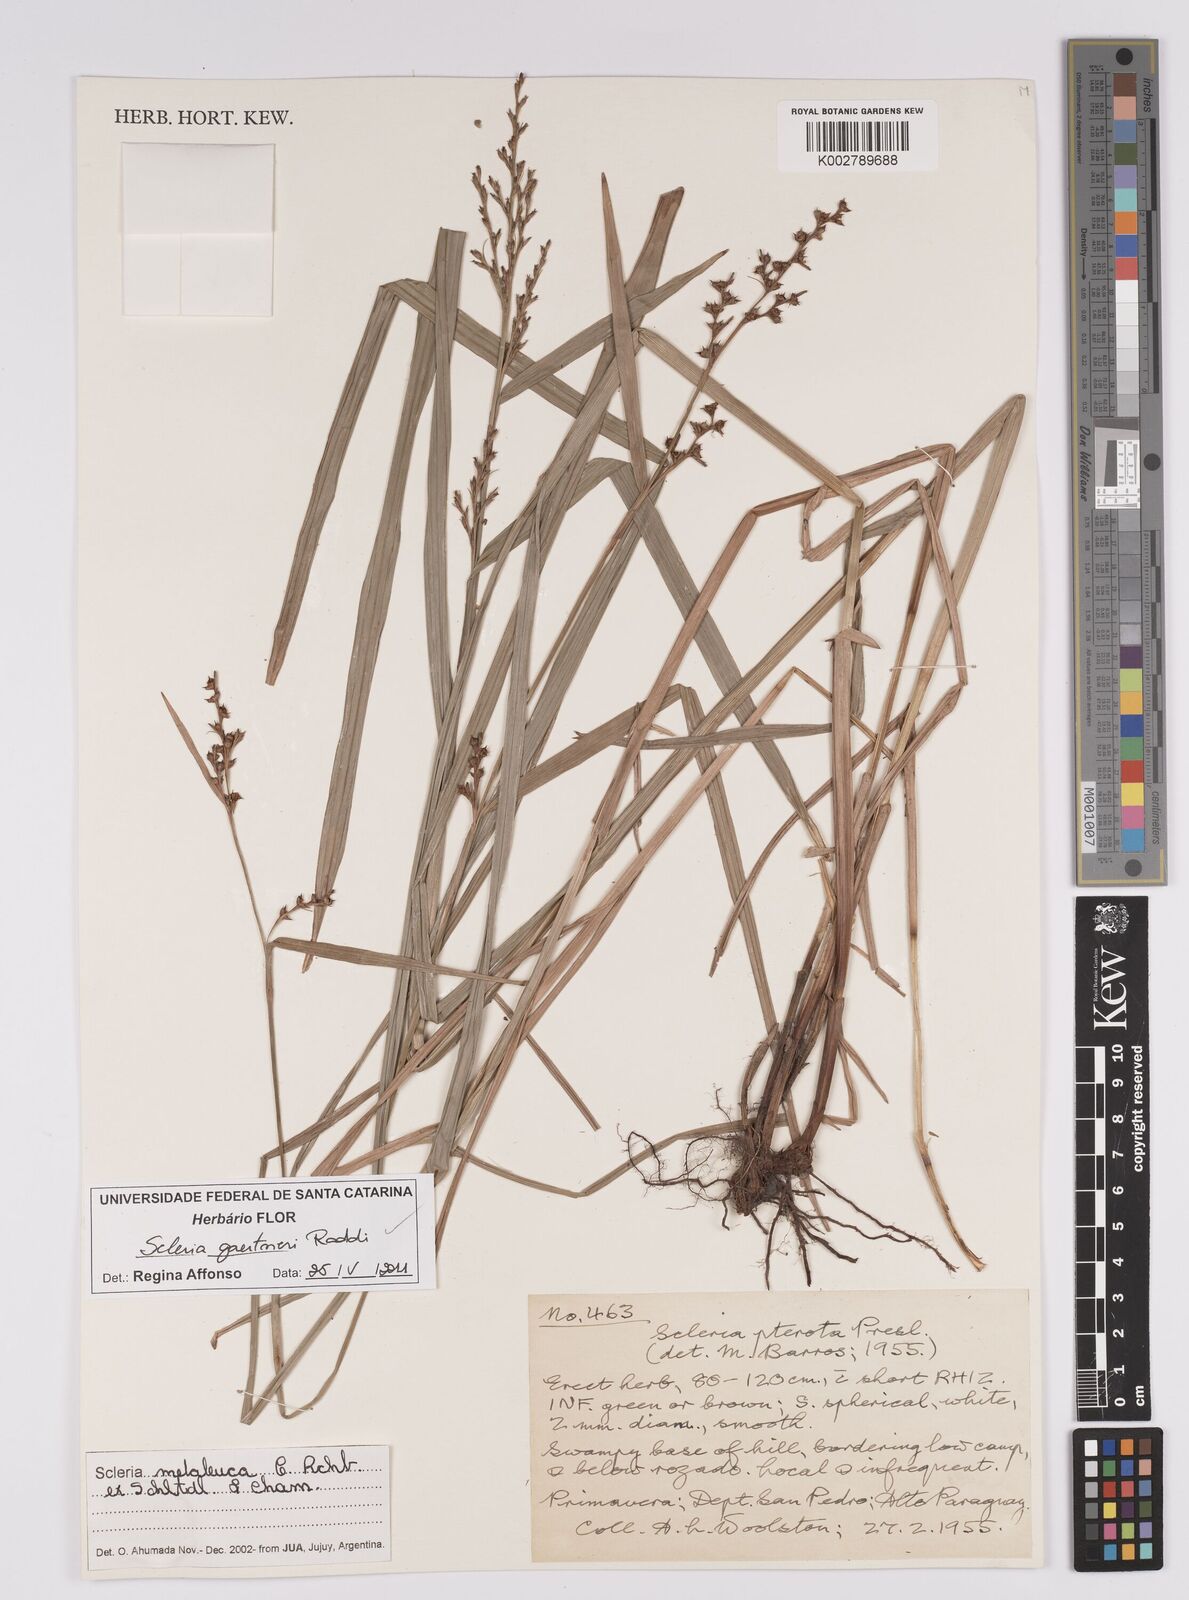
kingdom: Plantae
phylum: Tracheophyta
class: Liliopsida
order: Poales
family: Cyperaceae
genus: Scleria
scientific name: Scleria gaertneri
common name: Cortadera blanca
